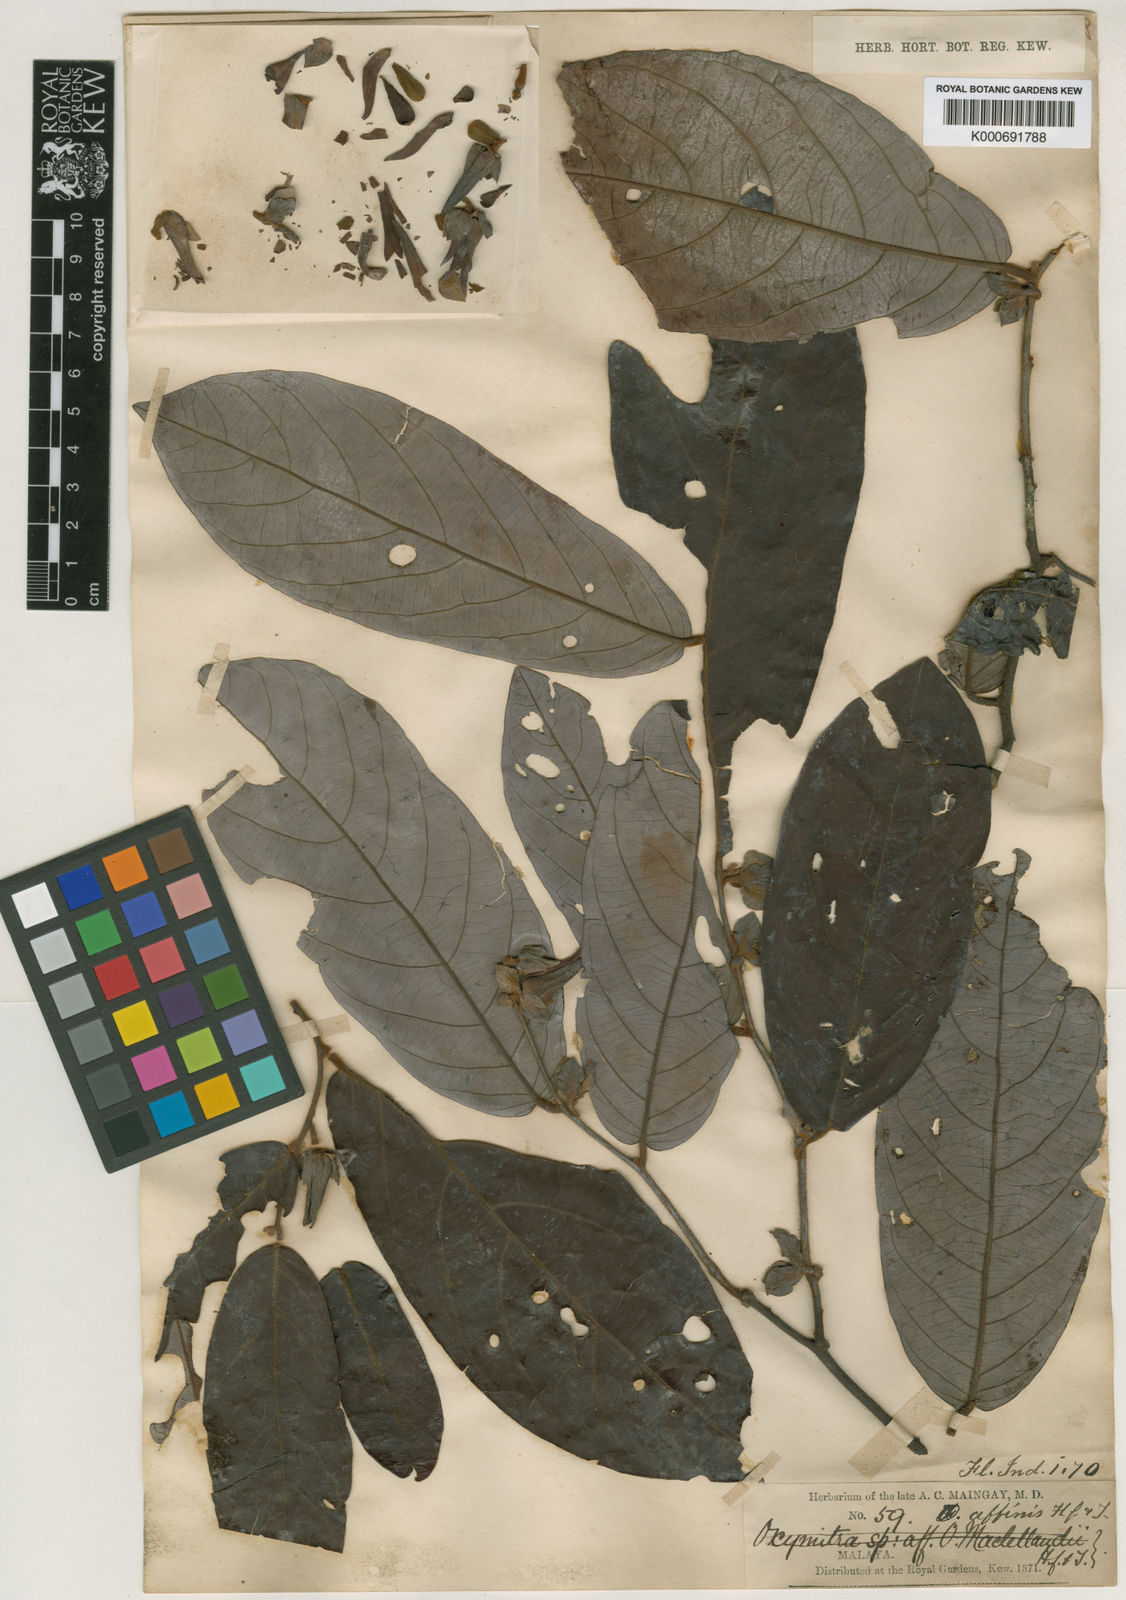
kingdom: Plantae
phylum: Tracheophyta
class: Magnoliopsida
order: Magnoliales
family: Annonaceae
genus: Friesodielsia
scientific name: Friesodielsia affinis
